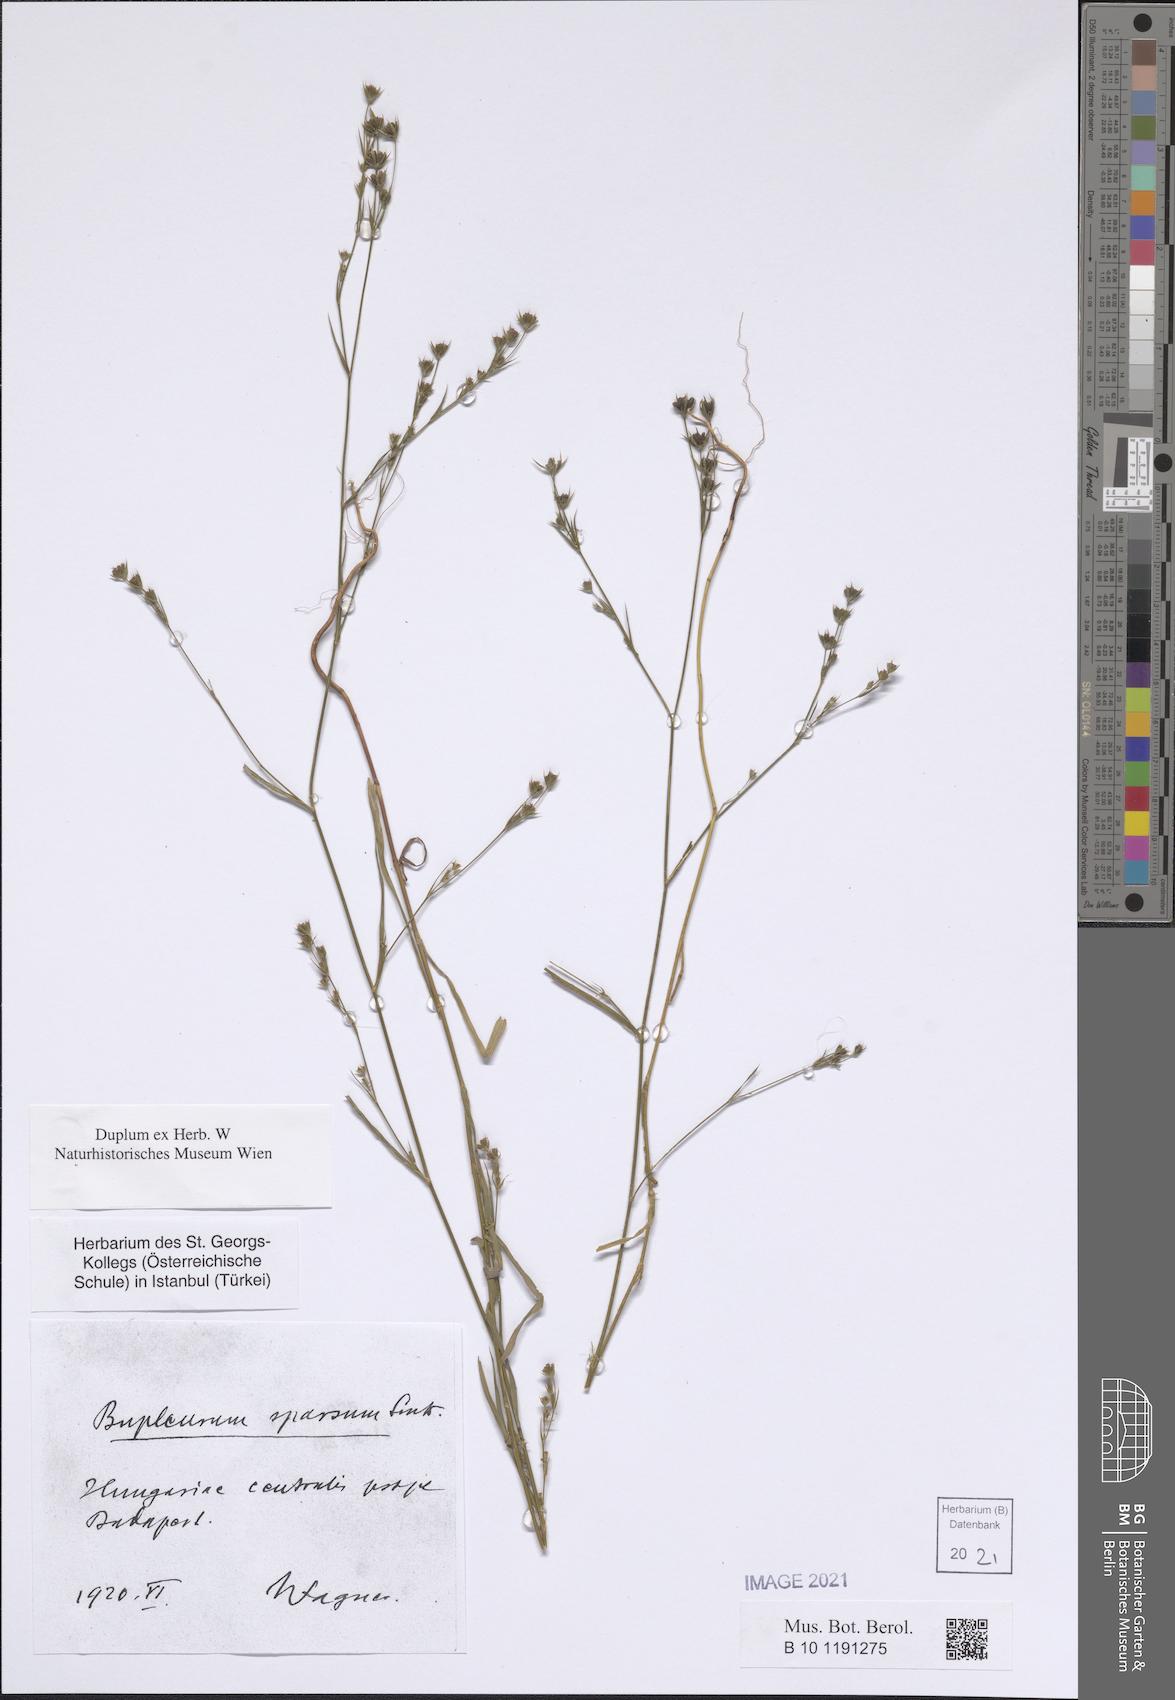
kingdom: Plantae
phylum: Tracheophyta
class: Magnoliopsida
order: Apiales
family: Apiaceae
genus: Bupleurum
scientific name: Bupleurum affine
